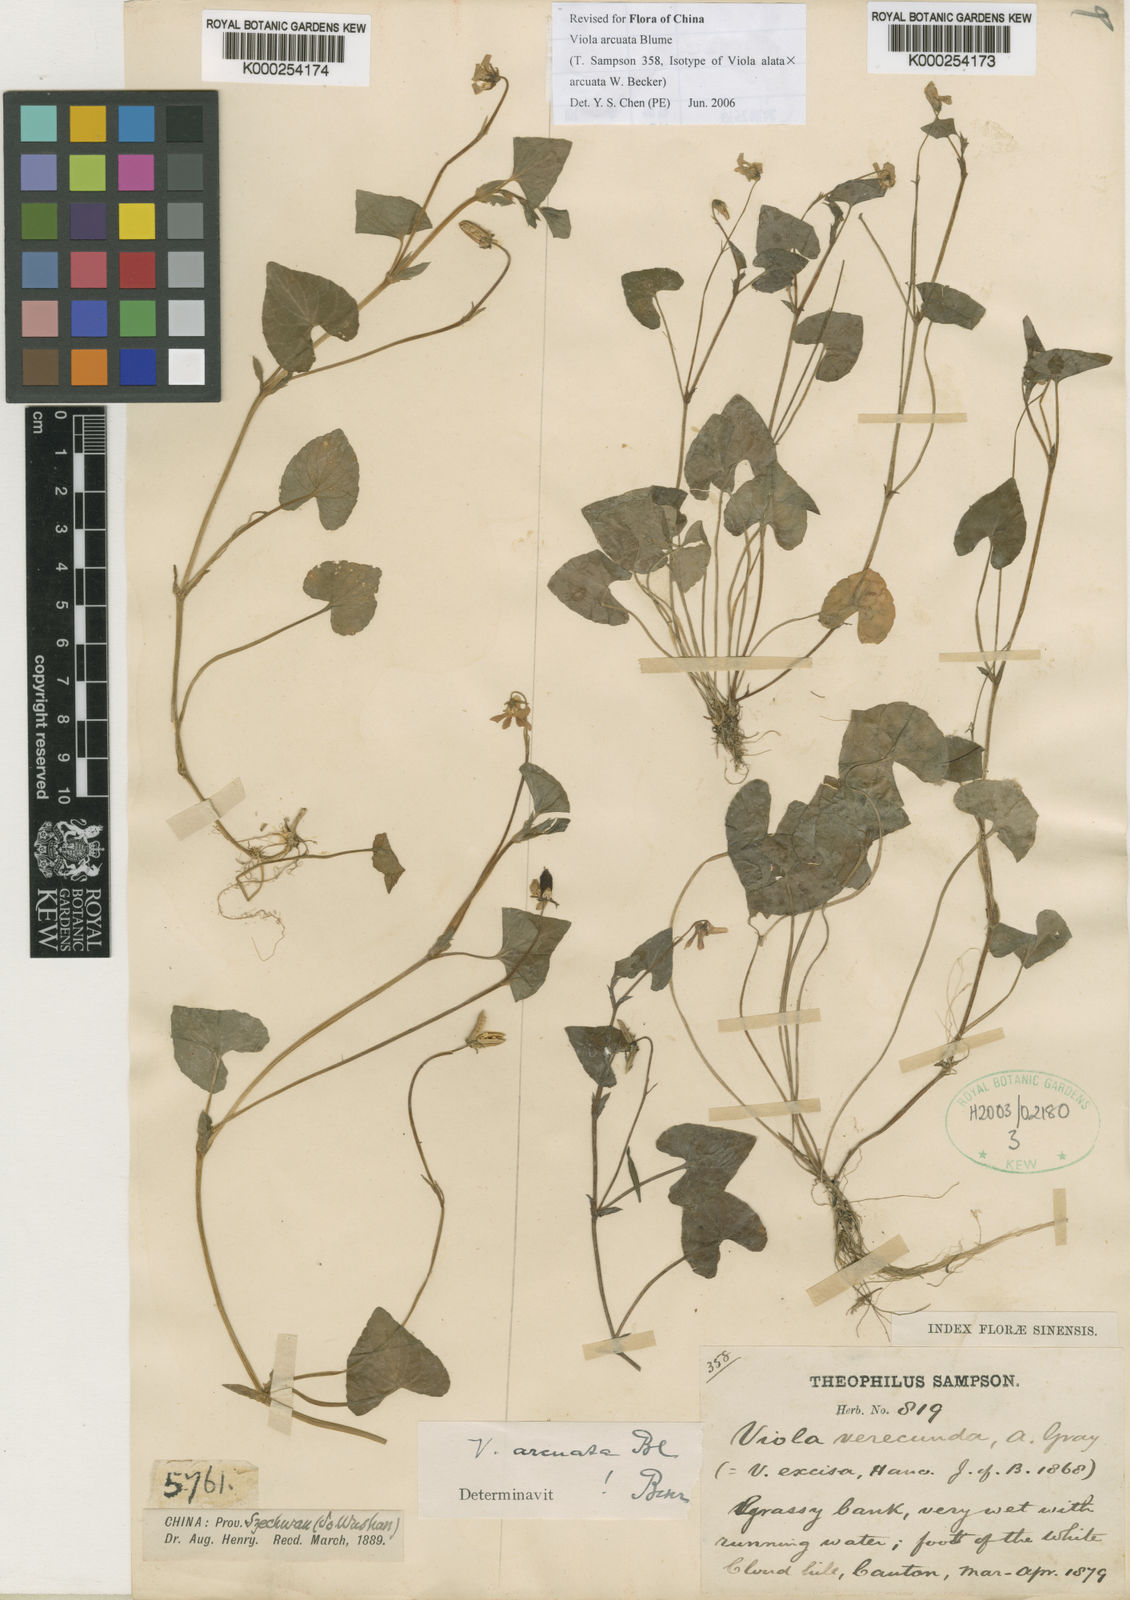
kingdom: Plantae
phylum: Tracheophyta
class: Magnoliopsida
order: Malpighiales
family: Violaceae
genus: Viola
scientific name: Viola hamiltoniana
